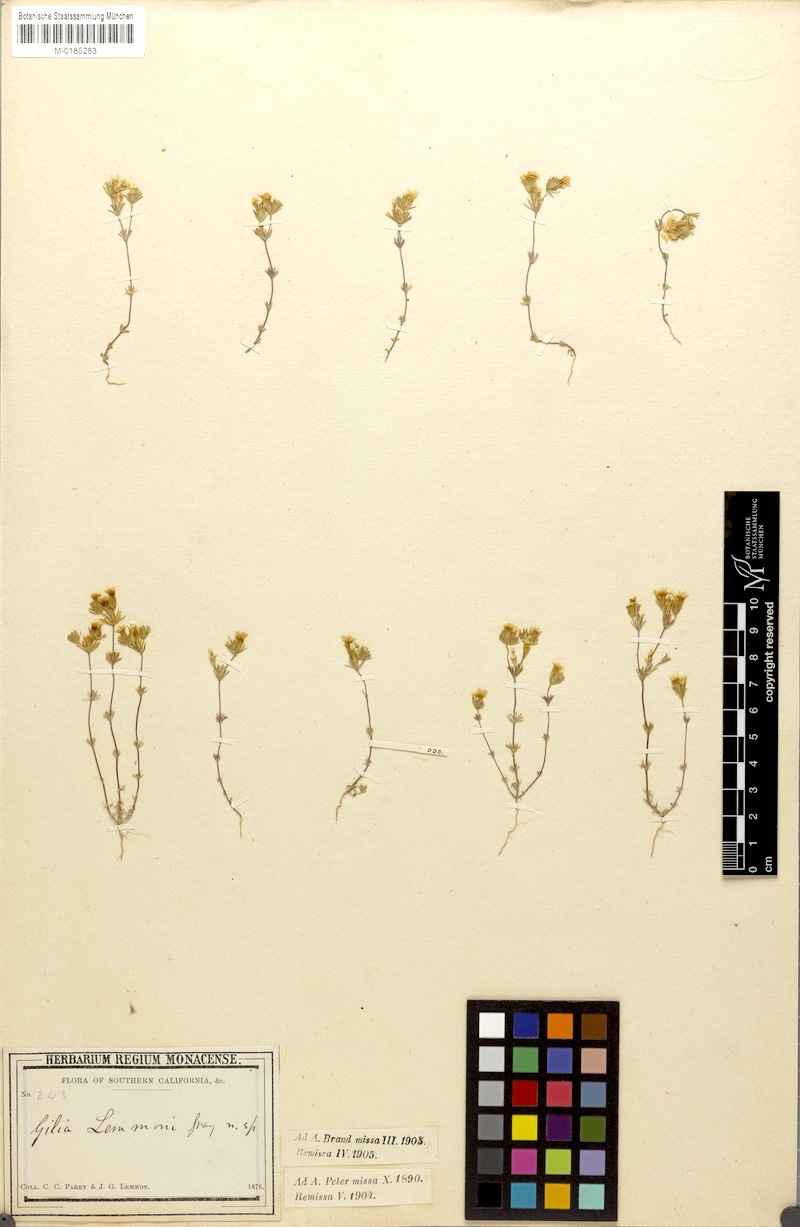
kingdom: Plantae
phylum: Tracheophyta
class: Magnoliopsida
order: Ericales
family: Polemoniaceae
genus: Leptosiphon
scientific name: Leptosiphon lemmonii
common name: Lemmon's linanthus
